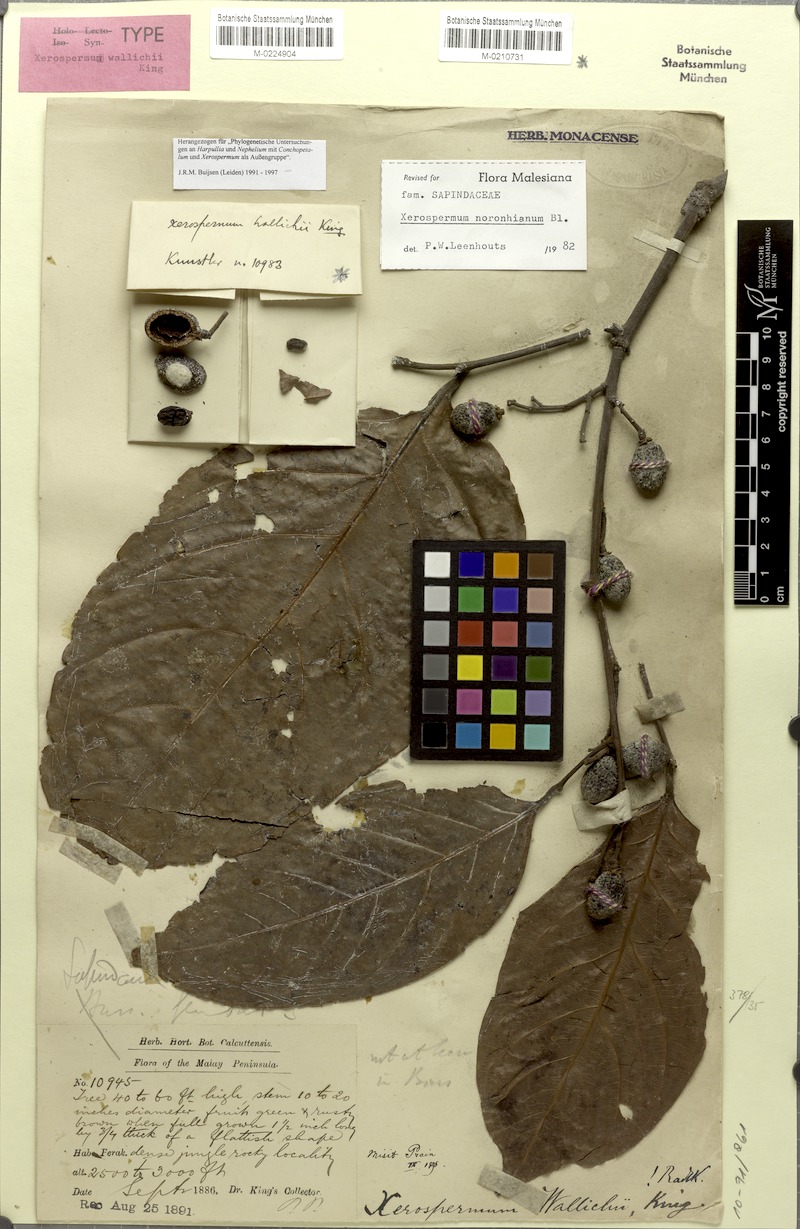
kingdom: Plantae
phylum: Tracheophyta
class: Magnoliopsida
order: Sapindales
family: Sapindaceae
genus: Xerospermum
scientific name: Xerospermum noronhianum
